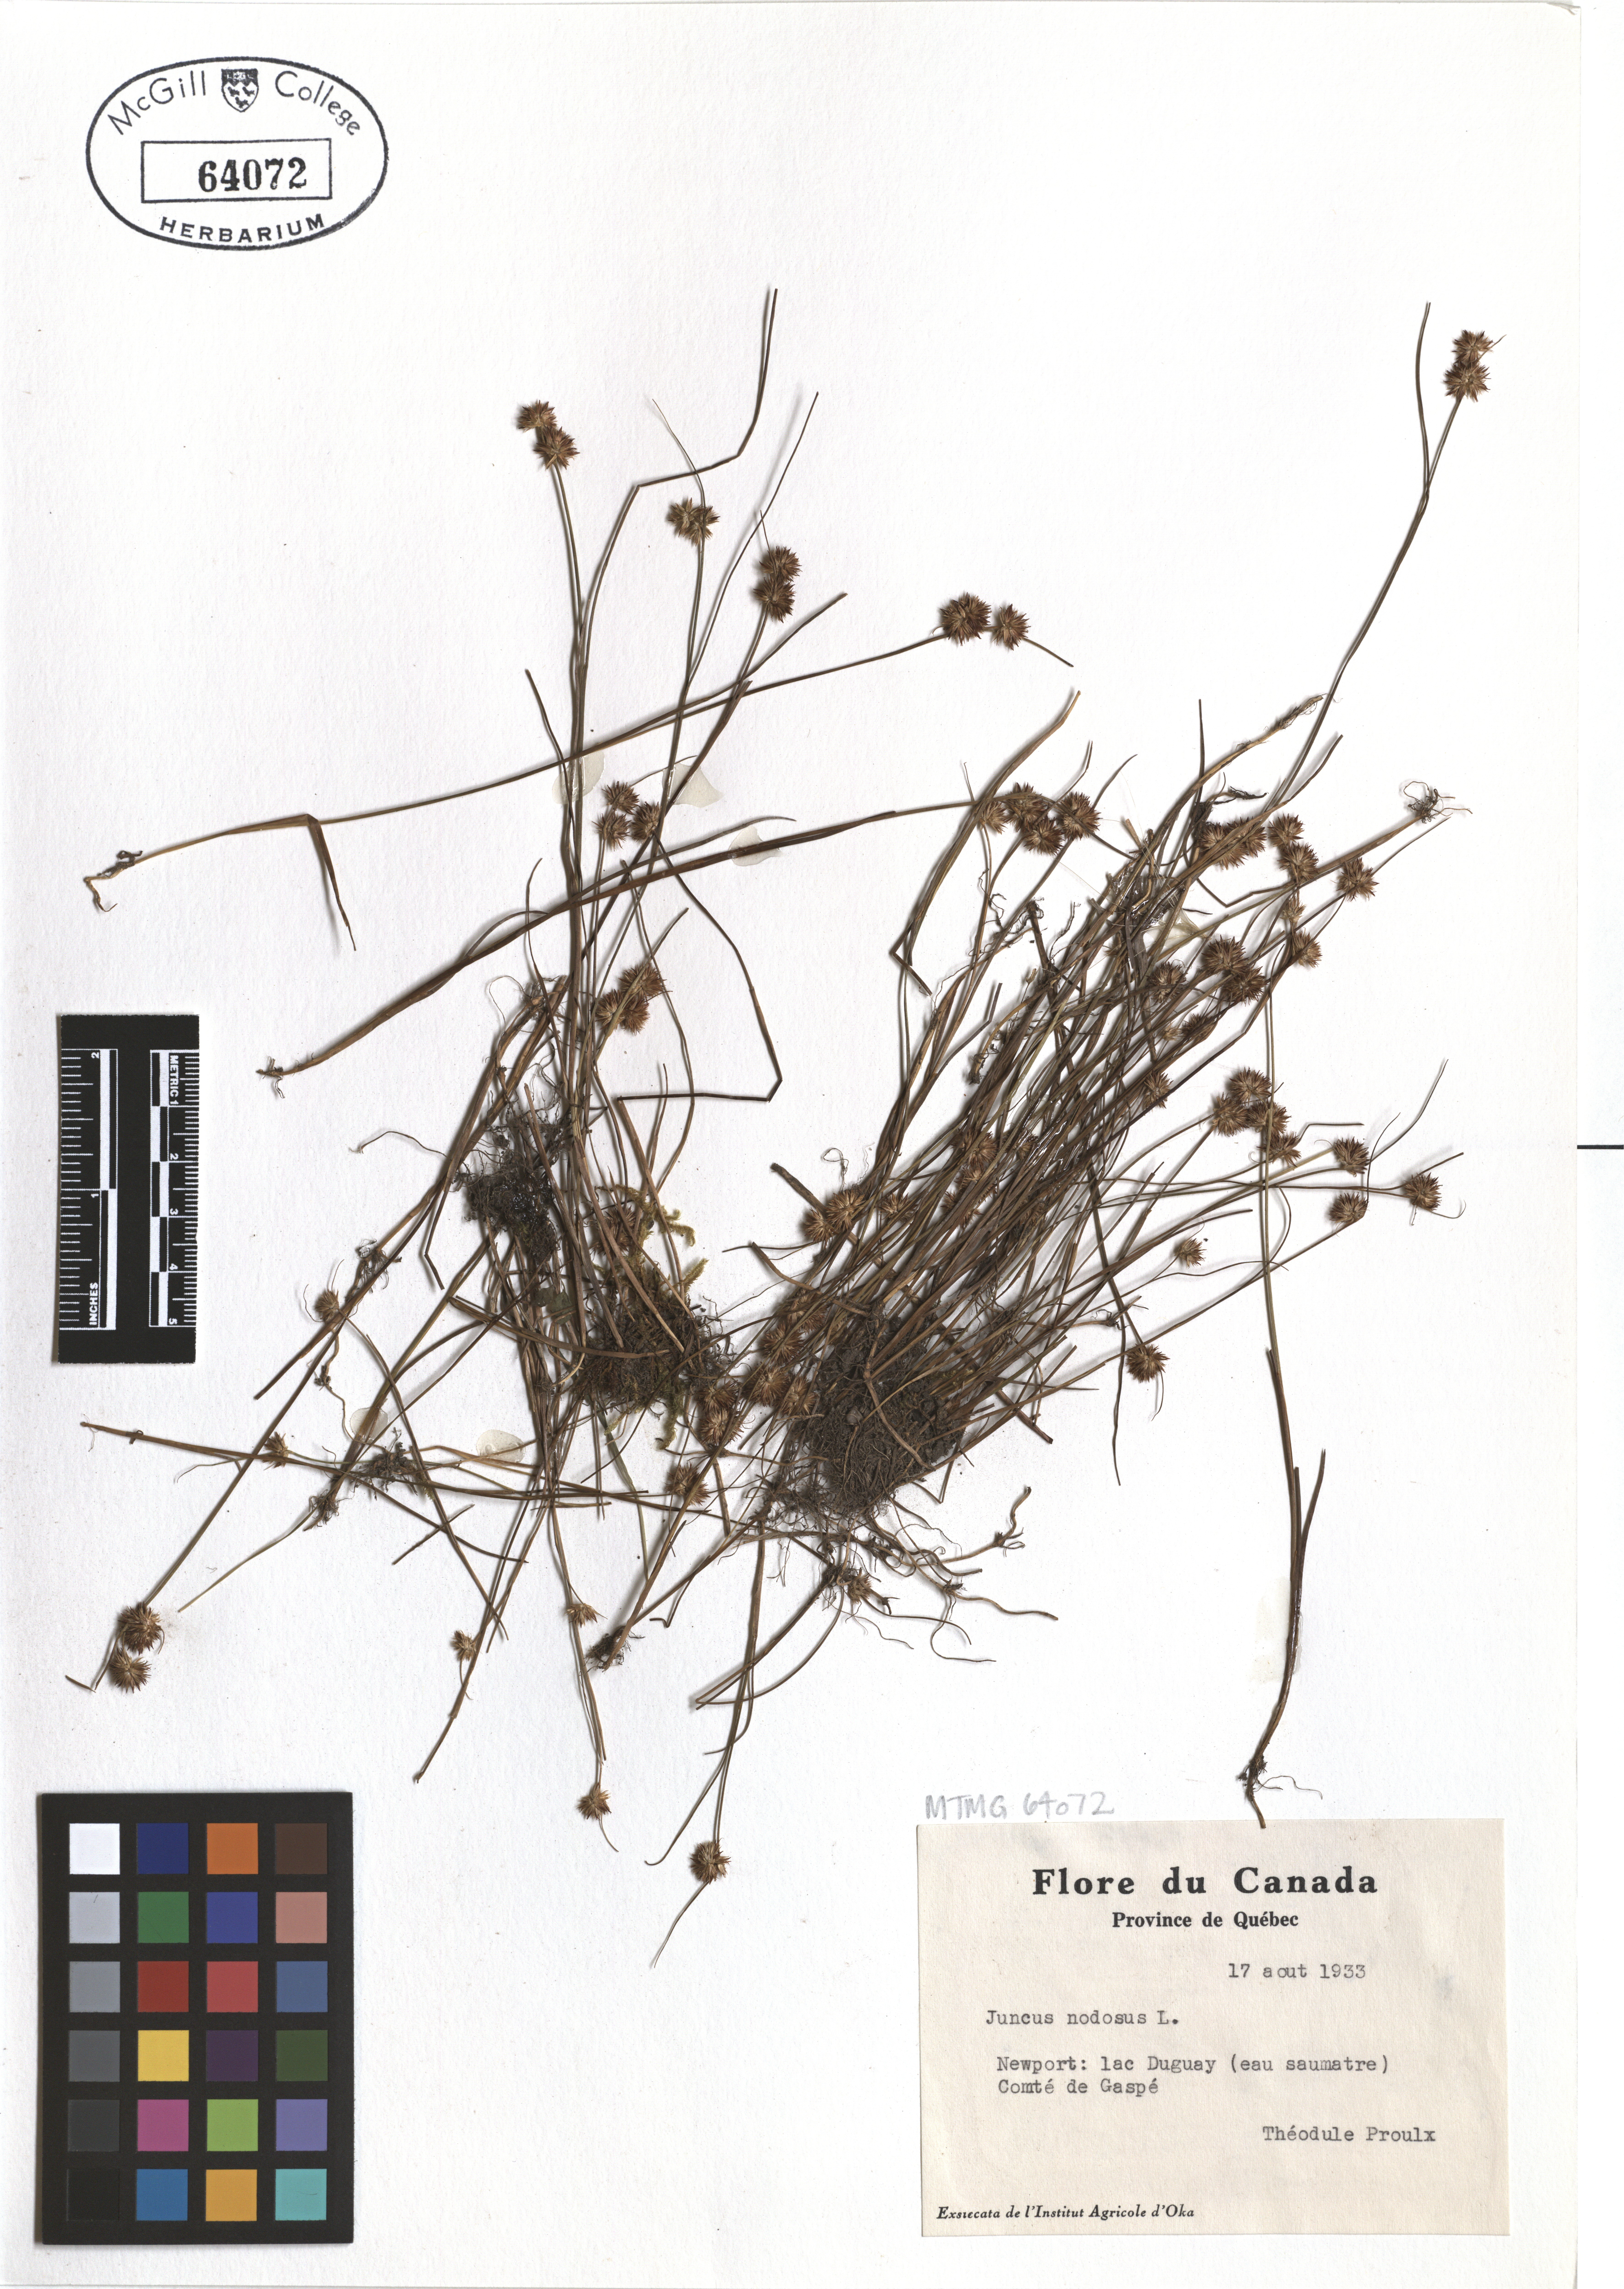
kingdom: Plantae
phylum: Tracheophyta
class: Liliopsida
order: Poales
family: Juncaceae
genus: Juncus
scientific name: Juncus nodosus
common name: Knotted rush
